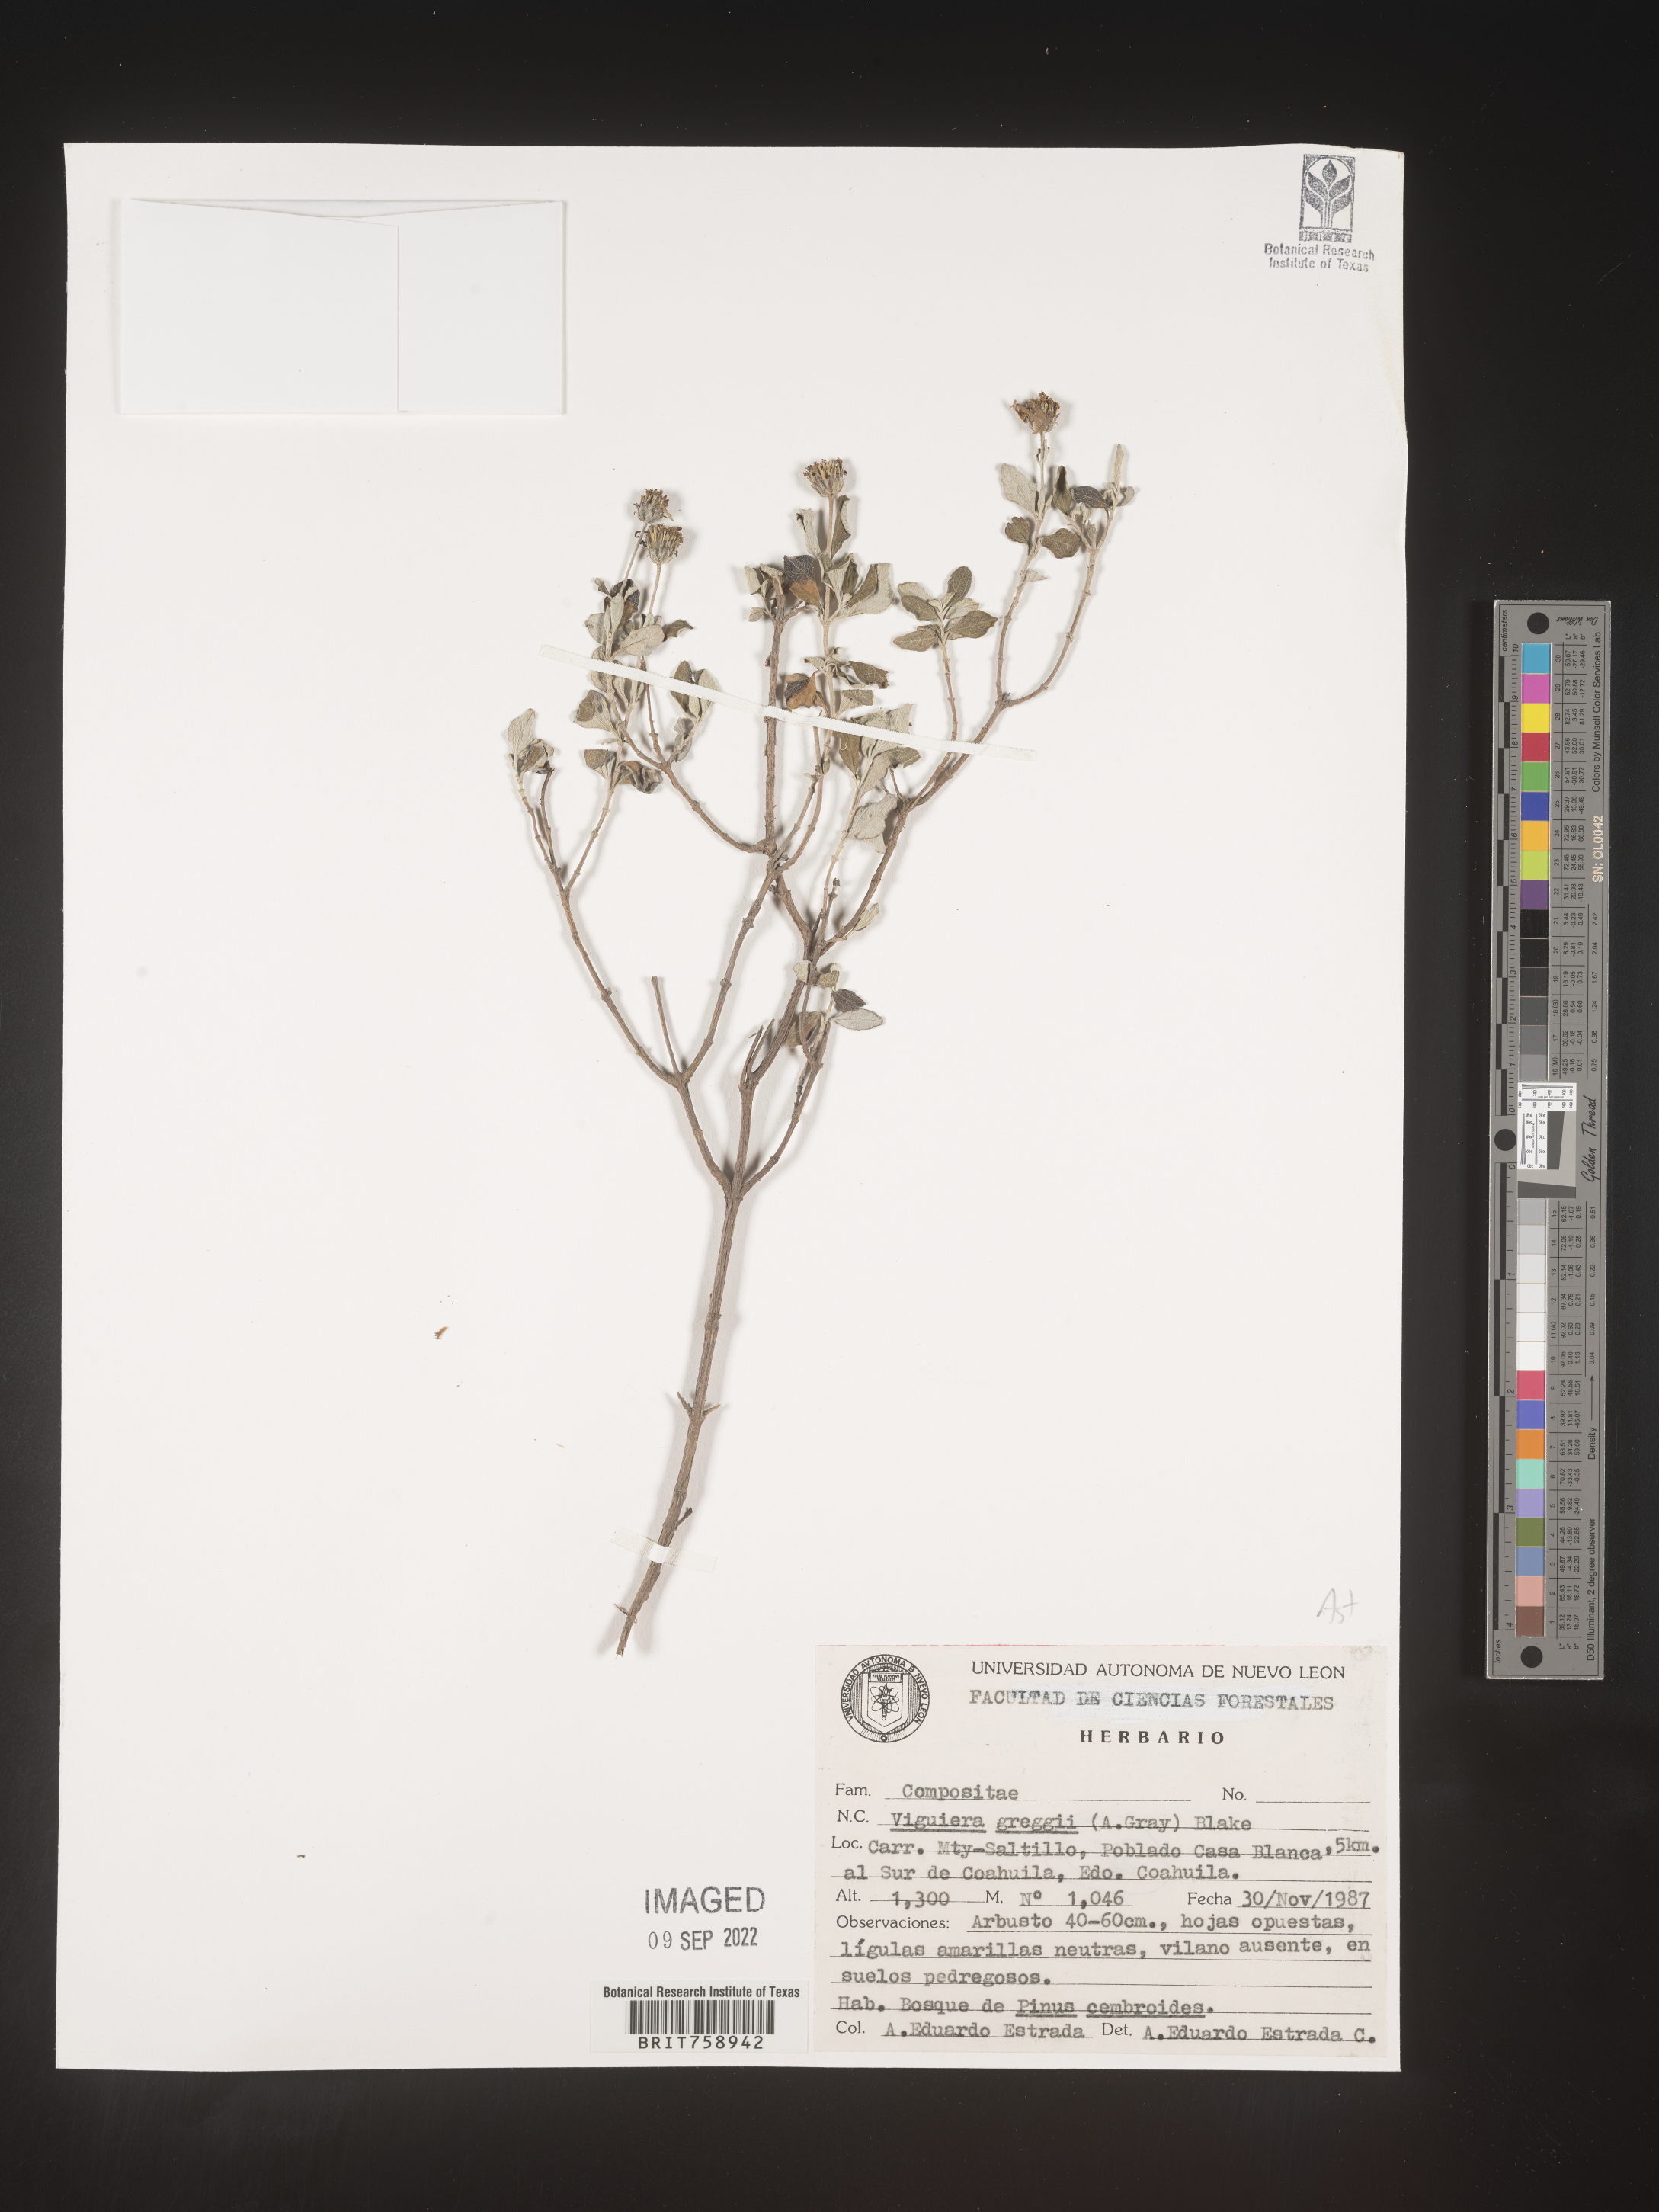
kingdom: Plantae
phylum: Tracheophyta
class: Magnoliopsida
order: Asterales
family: Asteraceae
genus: Viguiera
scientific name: Viguiera
